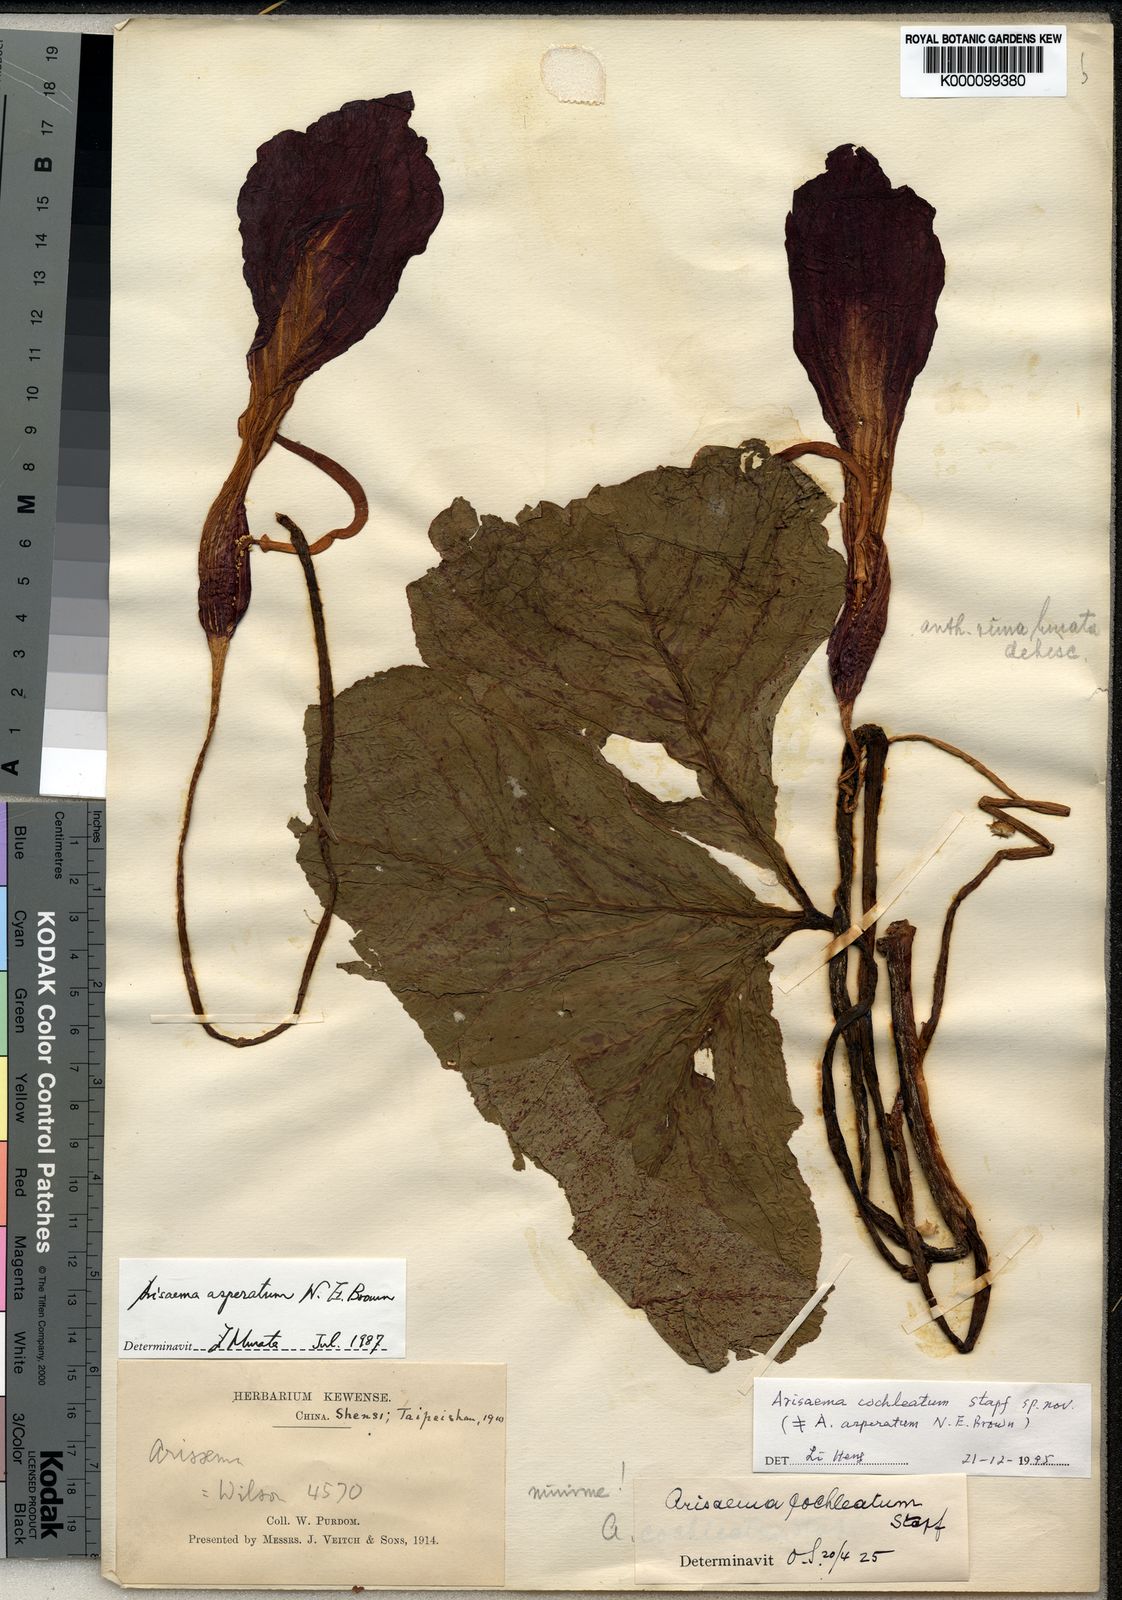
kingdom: Plantae
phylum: Tracheophyta
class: Liliopsida
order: Alismatales
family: Araceae
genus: Arisaema
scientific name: Arisaema asperatum
